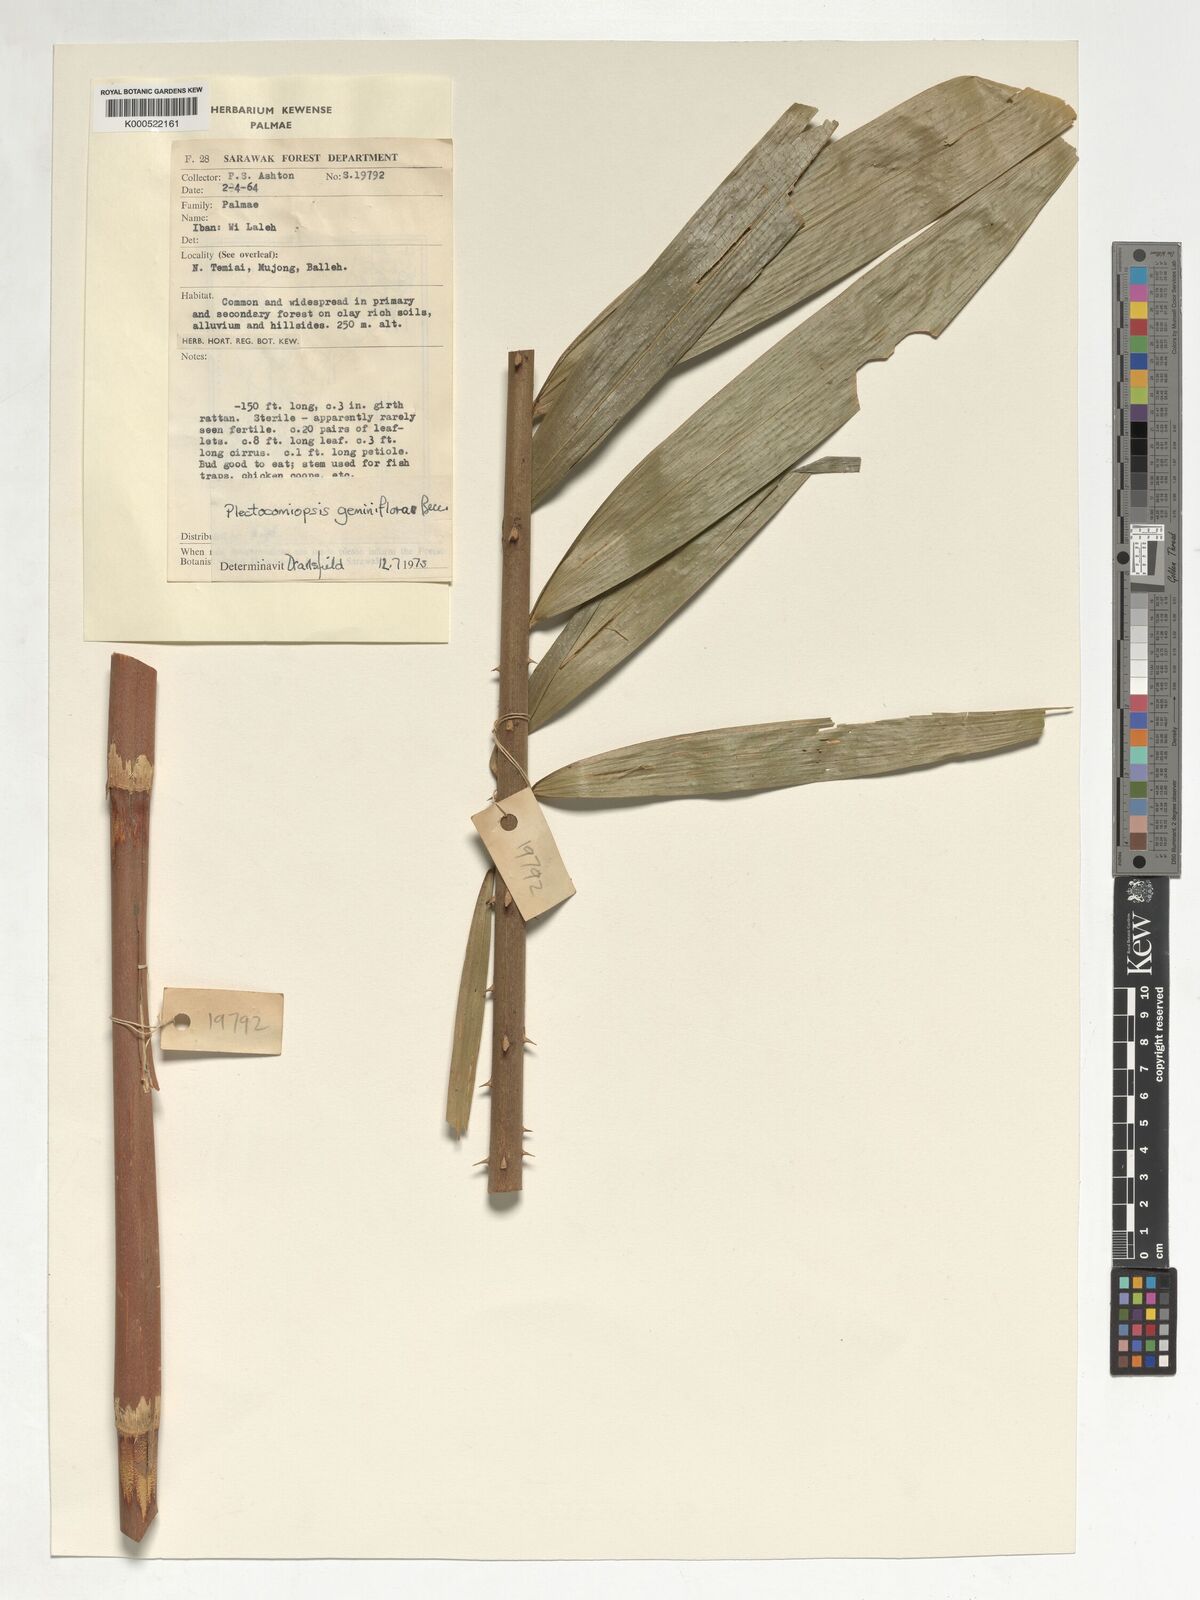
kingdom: Plantae
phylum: Tracheophyta
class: Liliopsida
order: Arecales
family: Arecaceae
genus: Plectocomiopsis
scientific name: Plectocomiopsis geminiflora
